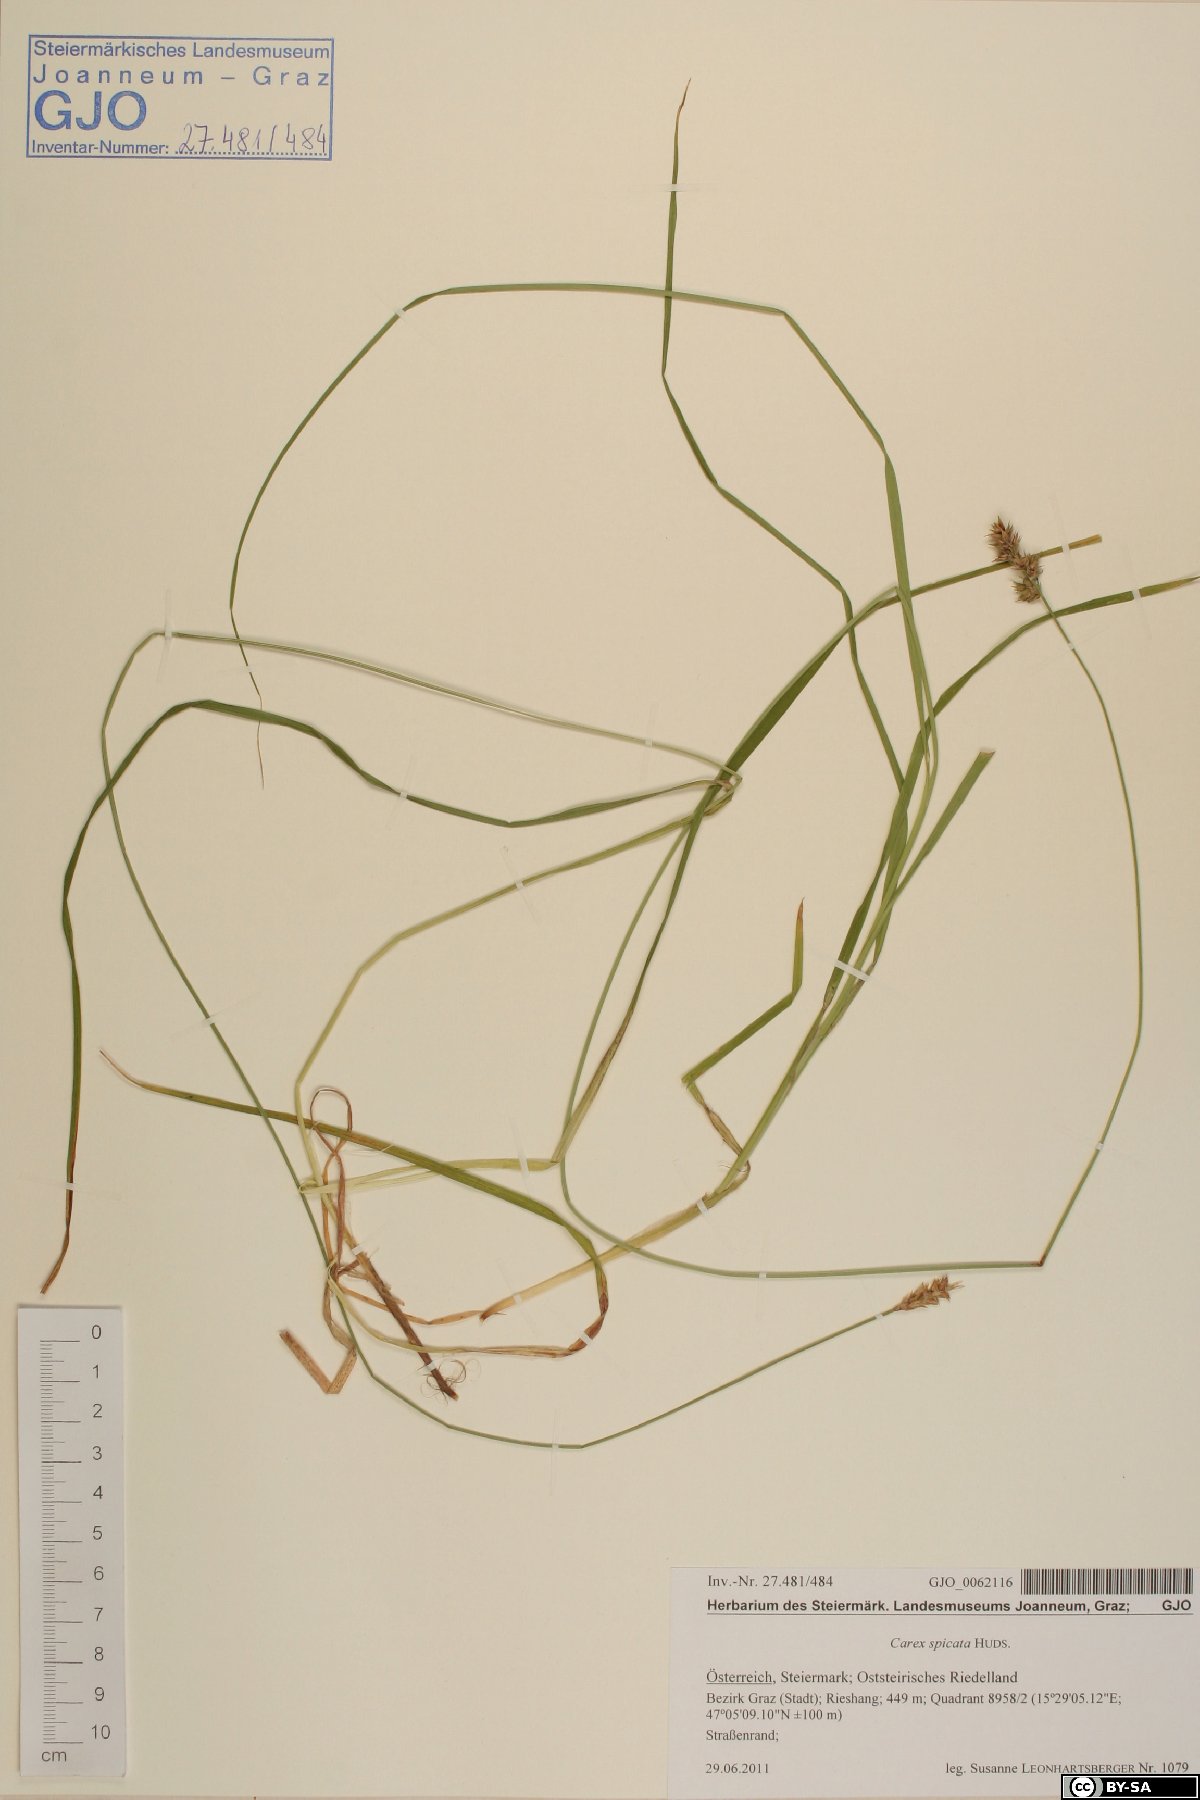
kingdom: Plantae
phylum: Tracheophyta
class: Liliopsida
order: Poales
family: Cyperaceae
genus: Carex
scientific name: Carex spicata
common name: Spiked sedge
